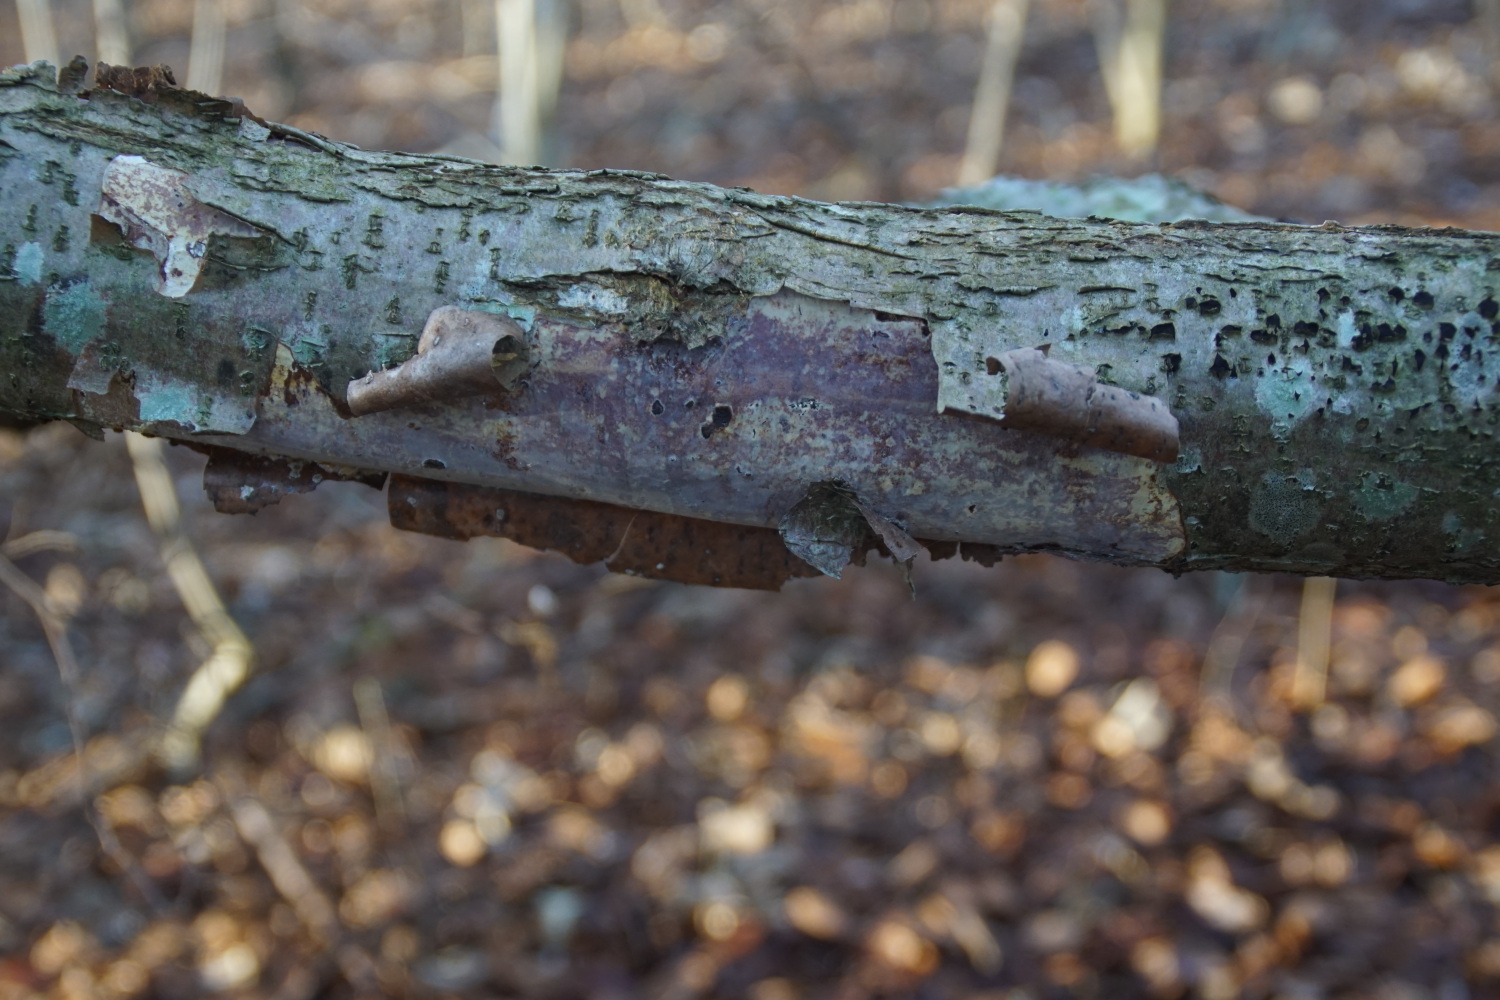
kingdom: Fungi
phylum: Basidiomycota
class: Agaricomycetes
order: Corticiales
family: Vuilleminiaceae
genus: Vuilleminia
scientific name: Vuilleminia coryli
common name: hassel-barksprænger
